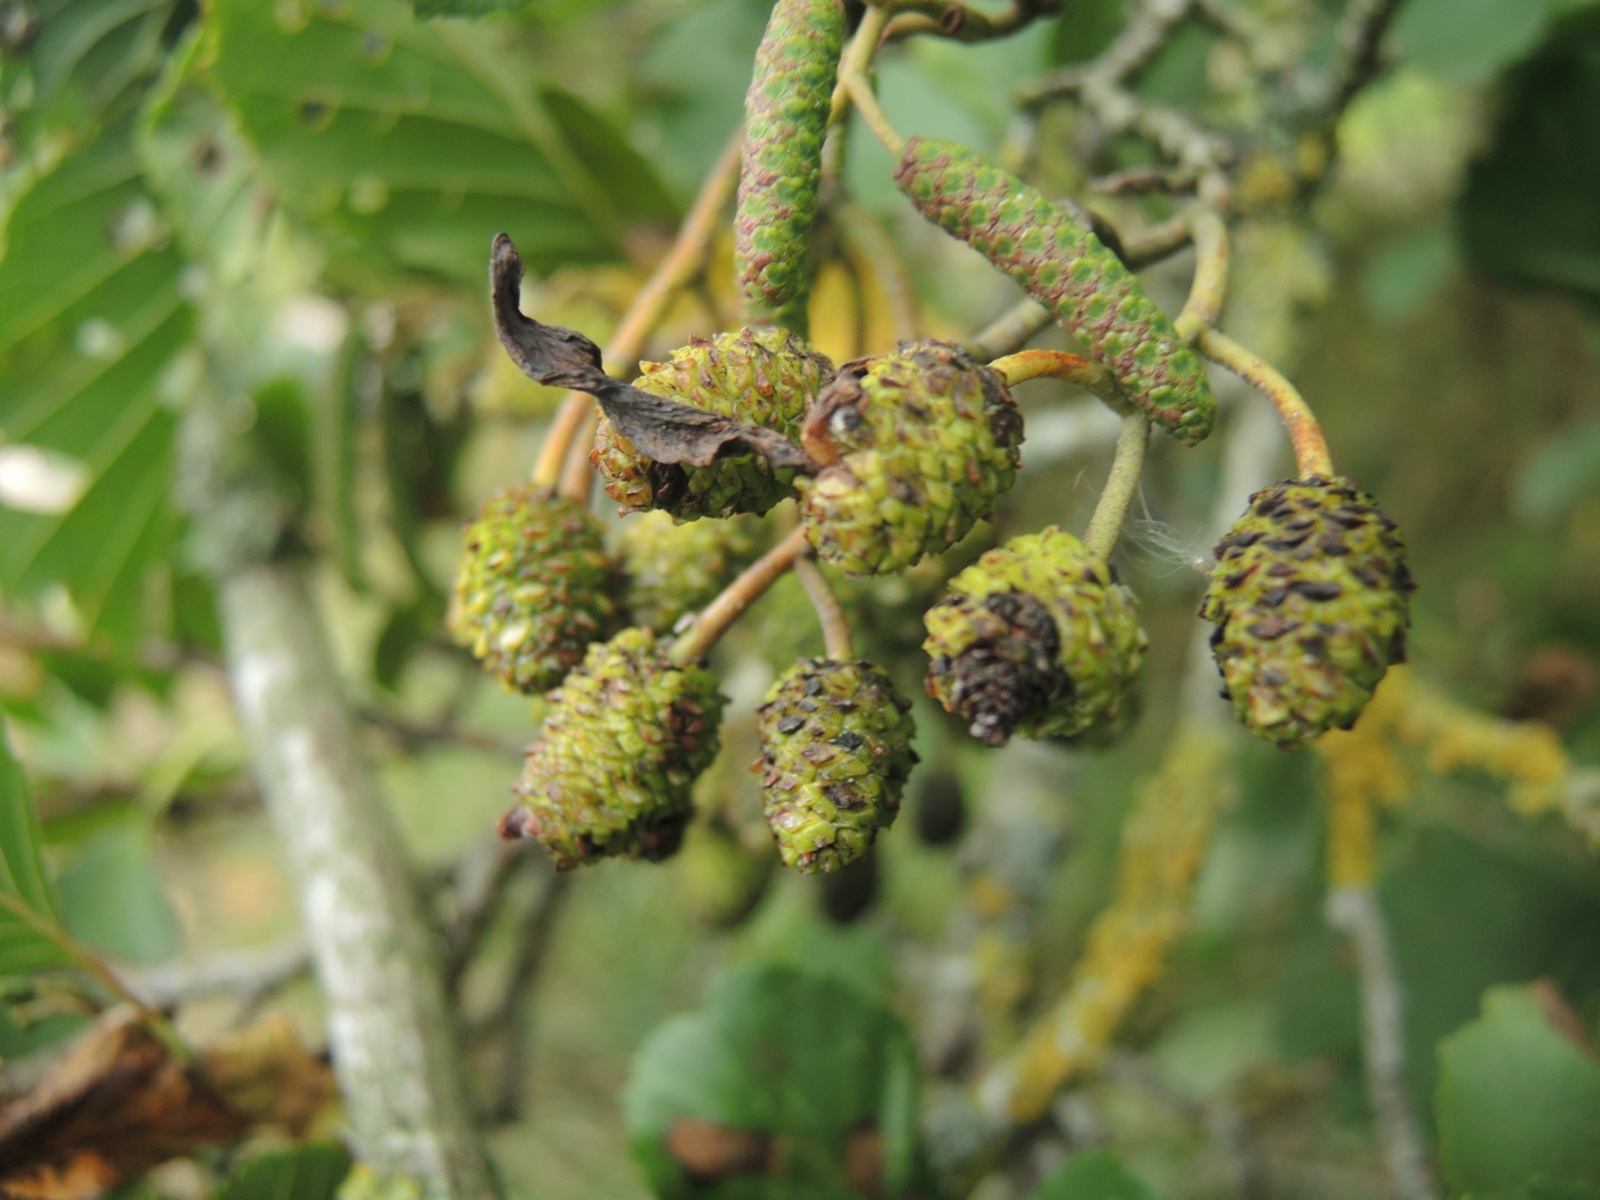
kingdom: Fungi
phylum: Ascomycota
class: Taphrinomycetes
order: Taphrinales
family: Taphrinaceae
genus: Taphrina
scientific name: Taphrina alni
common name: Alder tongue
